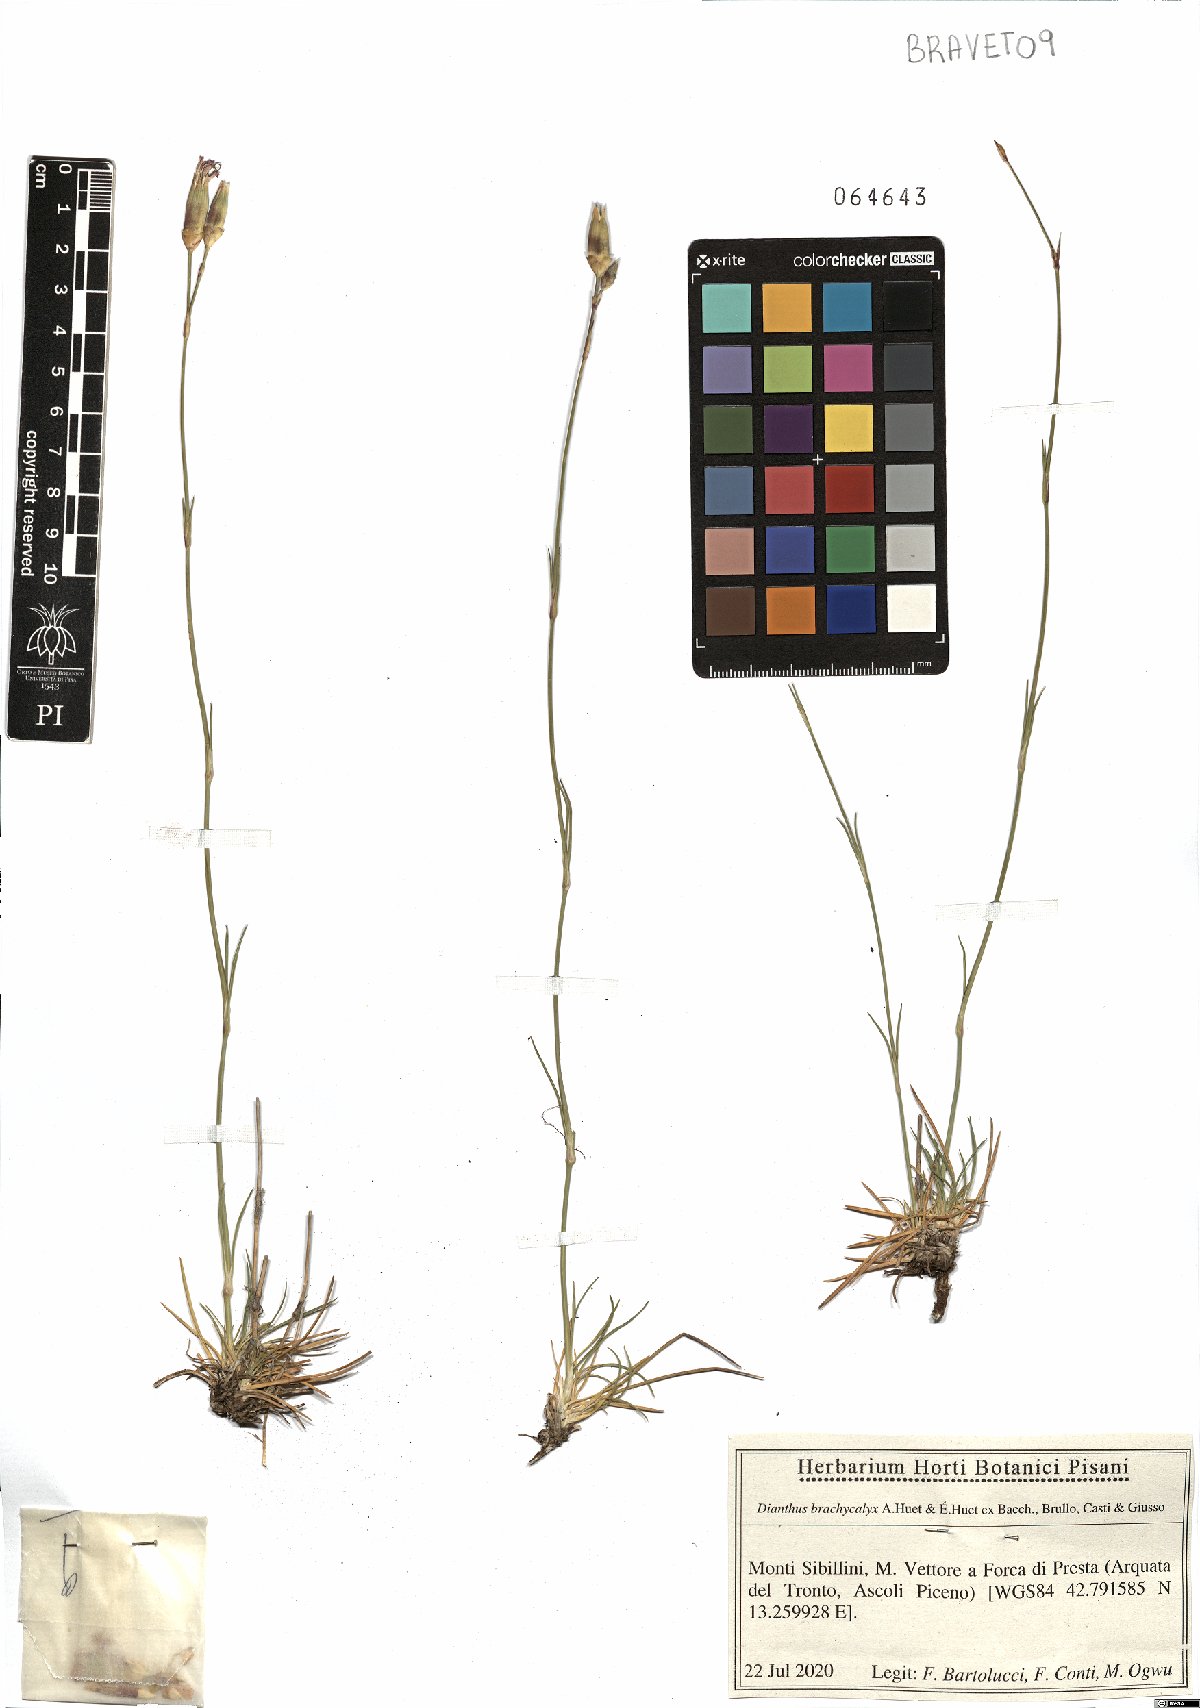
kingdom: Plantae
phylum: Tracheophyta
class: Magnoliopsida
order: Caryophyllales
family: Caryophyllaceae
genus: Dianthus
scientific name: Dianthus brachycalyx
